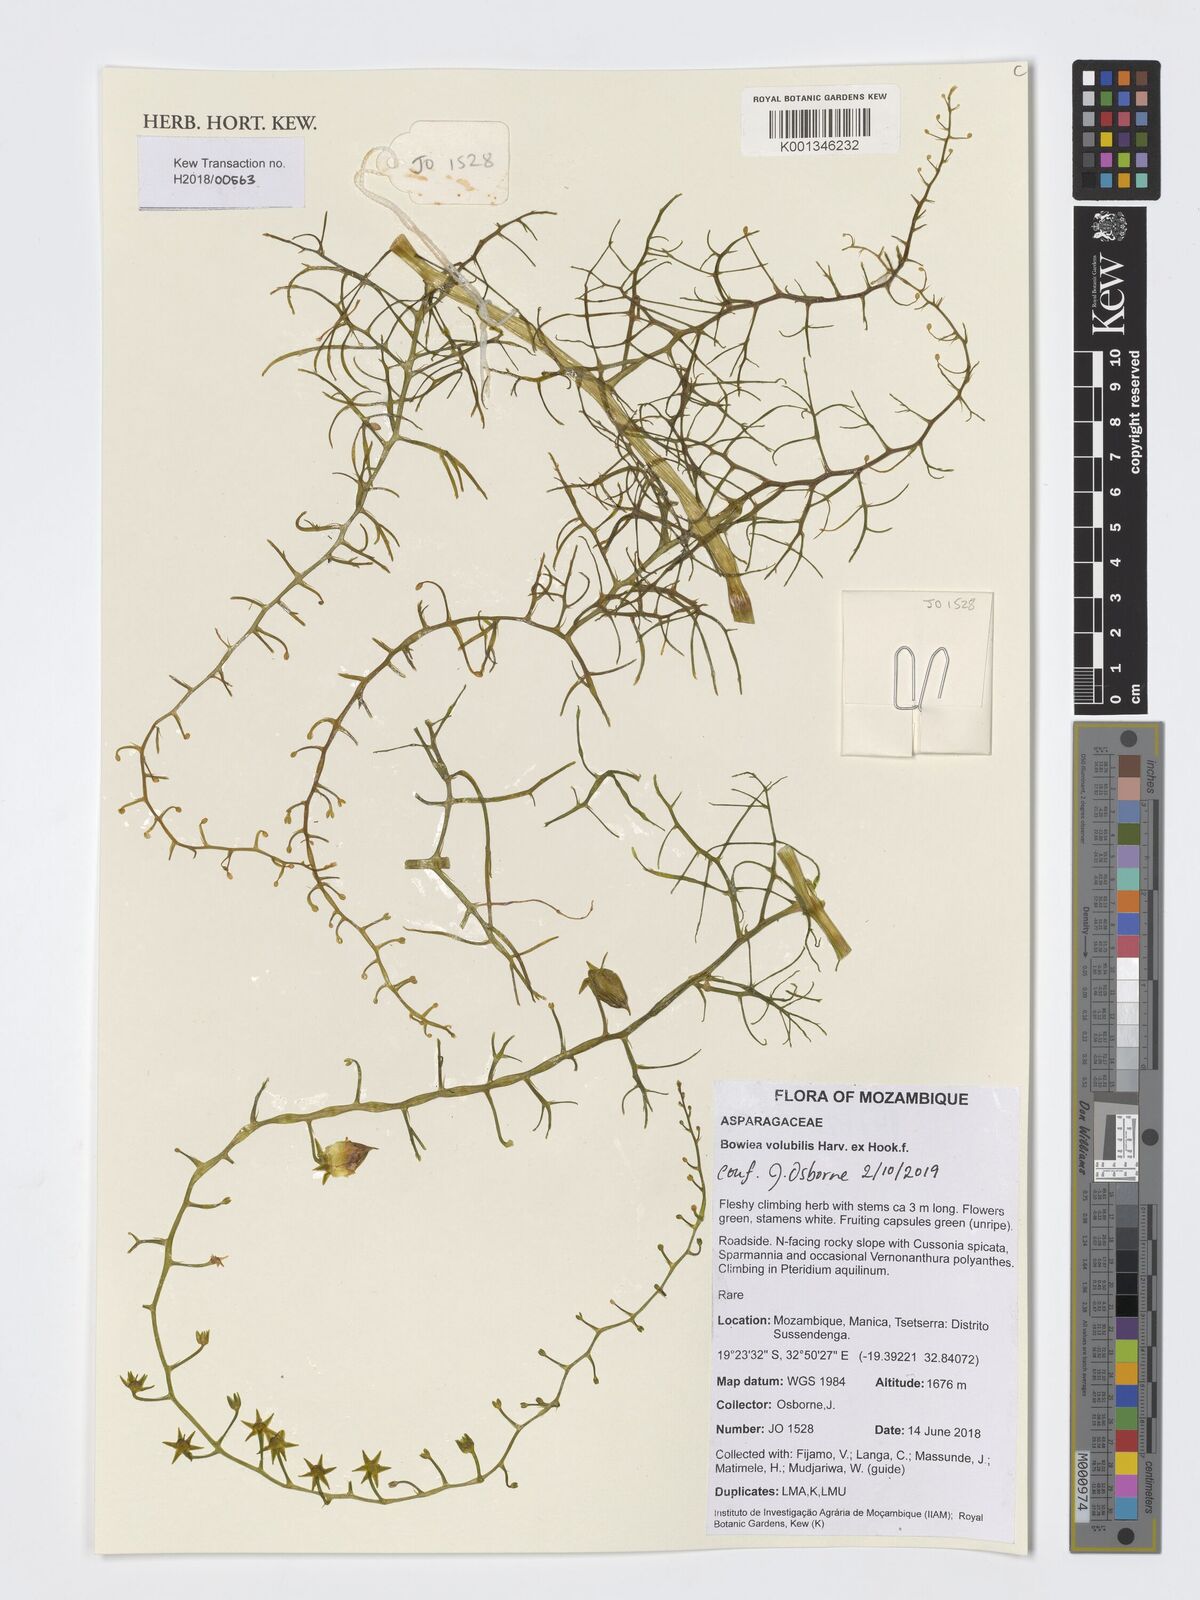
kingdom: Plantae
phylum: Tracheophyta
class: Liliopsida
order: Asparagales
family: Asparagaceae
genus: Bowiea
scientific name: Bowiea volubilis
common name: Climbing-onion
